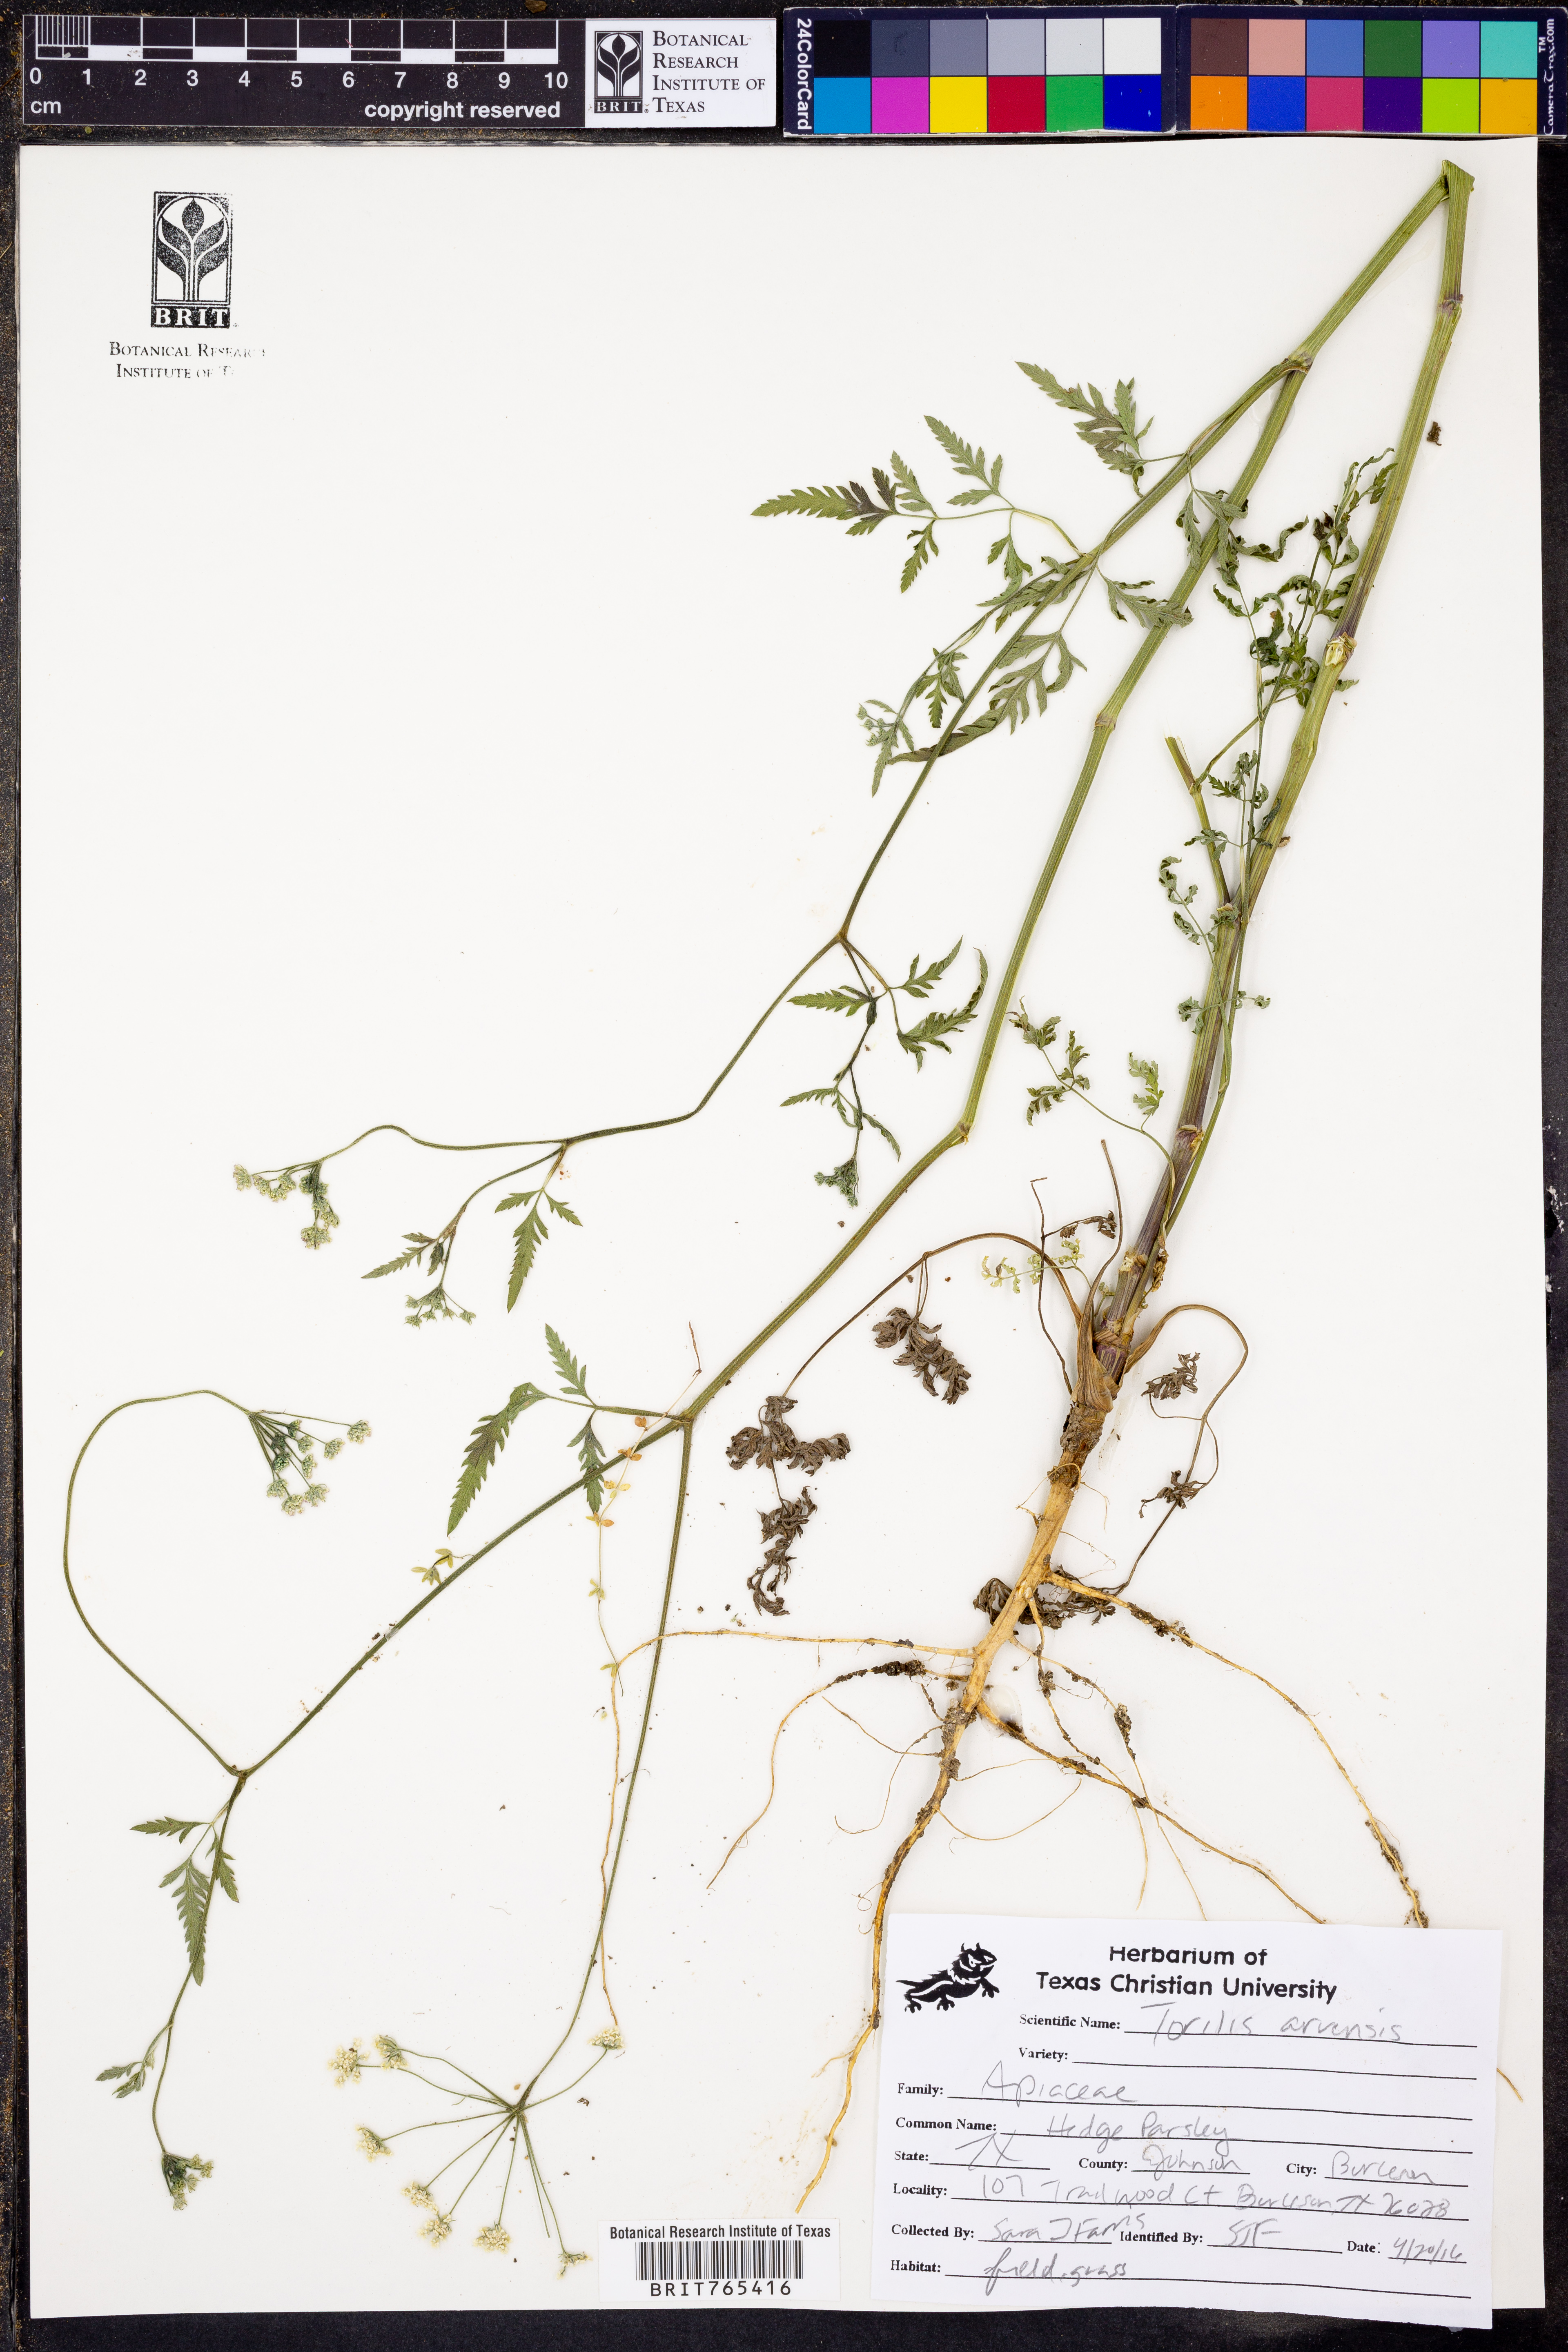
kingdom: Plantae
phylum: Tracheophyta
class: Magnoliopsida
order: Apiales
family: Apiaceae
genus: Torilis
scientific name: Torilis arvensis
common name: Spreading hedge-parsley
